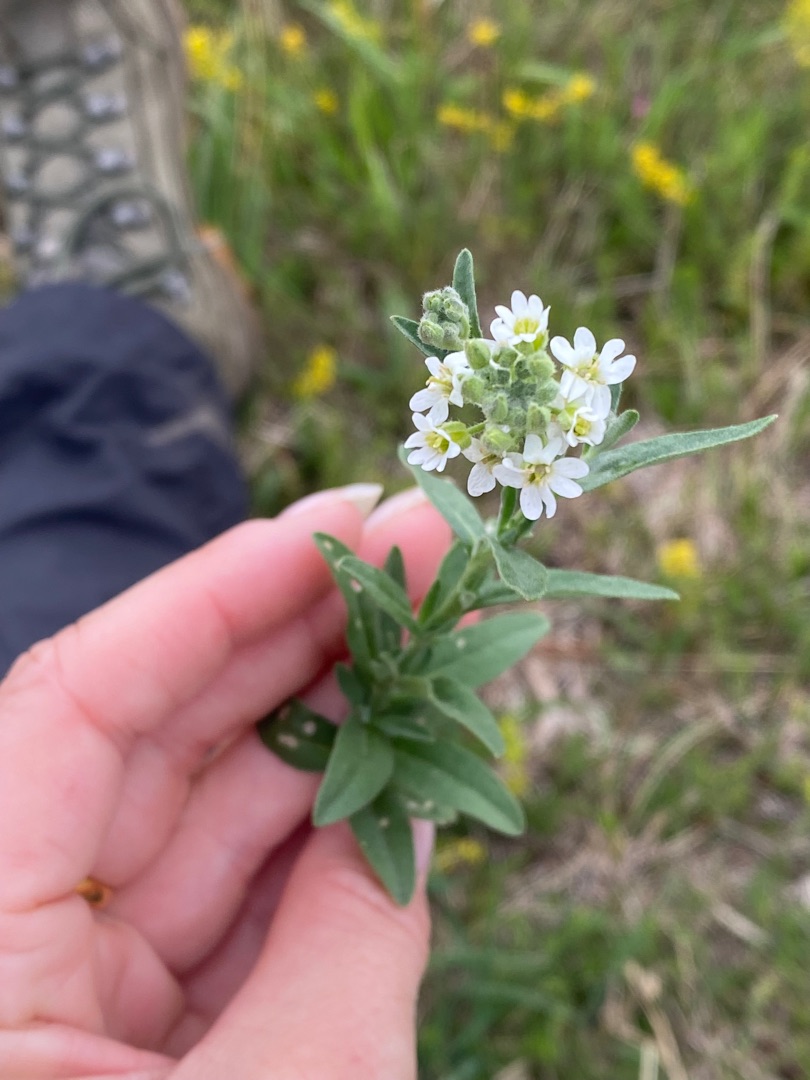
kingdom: Plantae
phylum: Tracheophyta
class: Magnoliopsida
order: Brassicales
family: Brassicaceae
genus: Berteroa
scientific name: Berteroa incana
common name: Kløvplade
